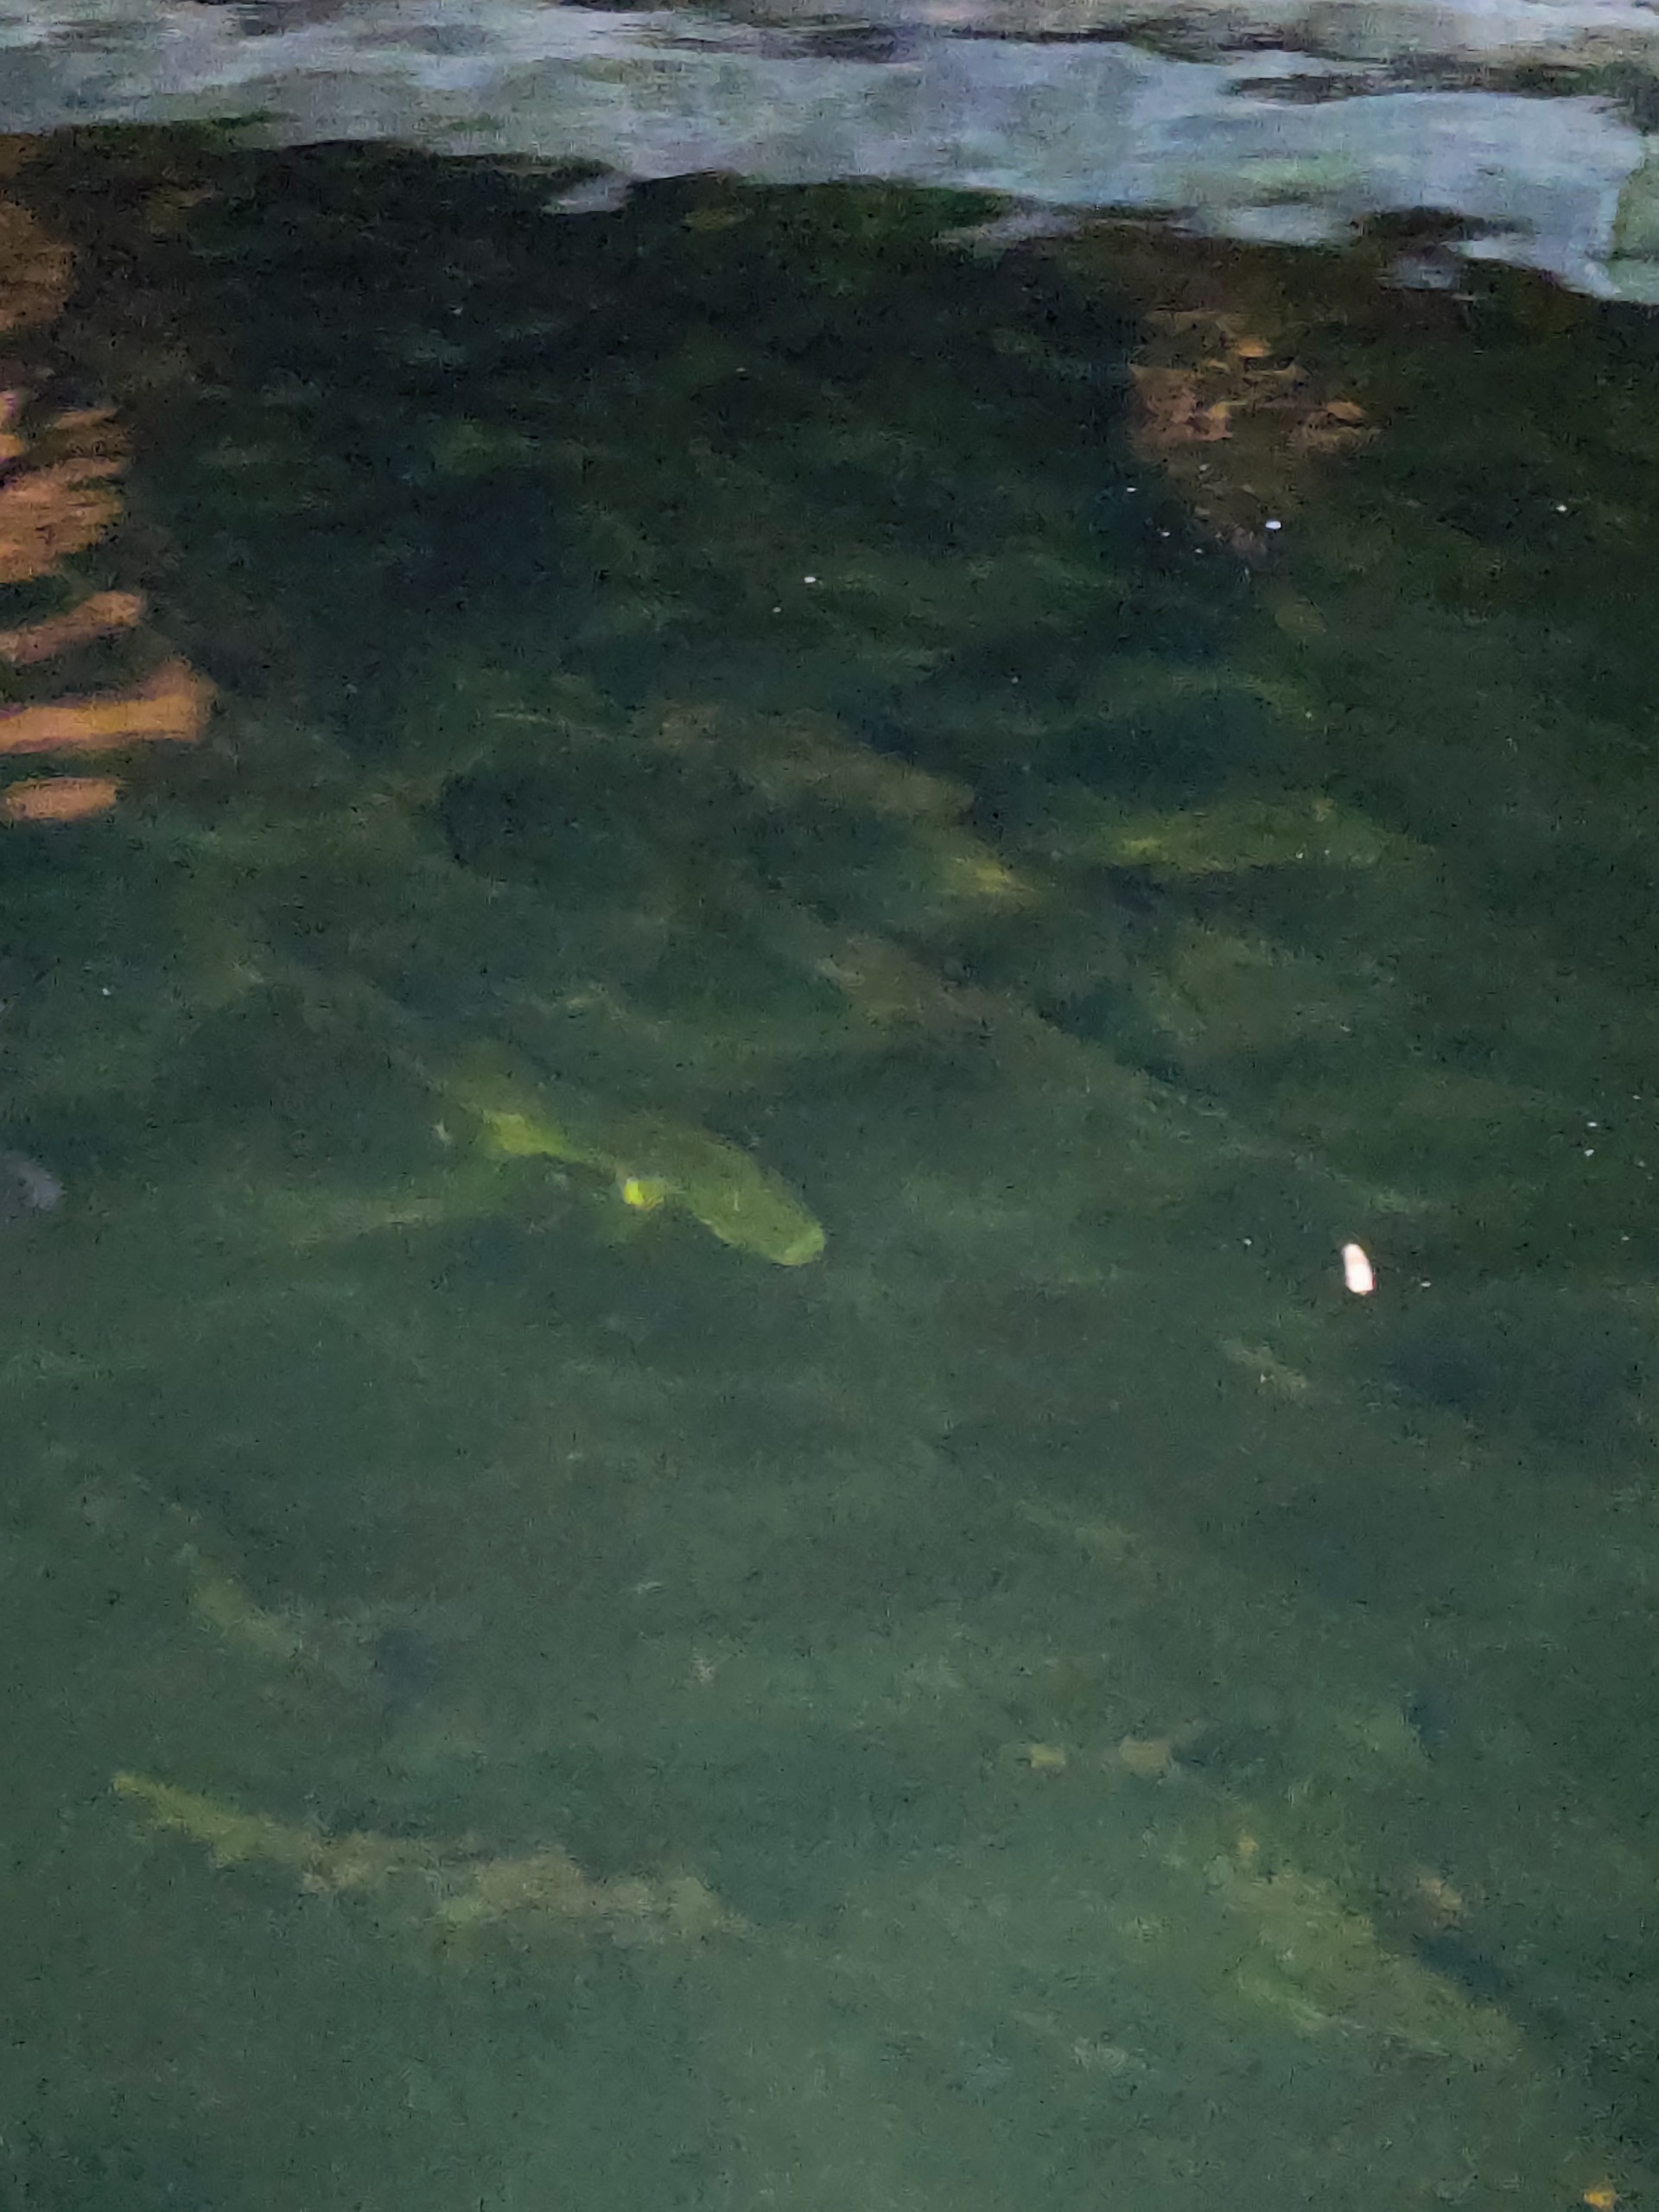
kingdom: Animalia
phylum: Chordata
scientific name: Chordata
